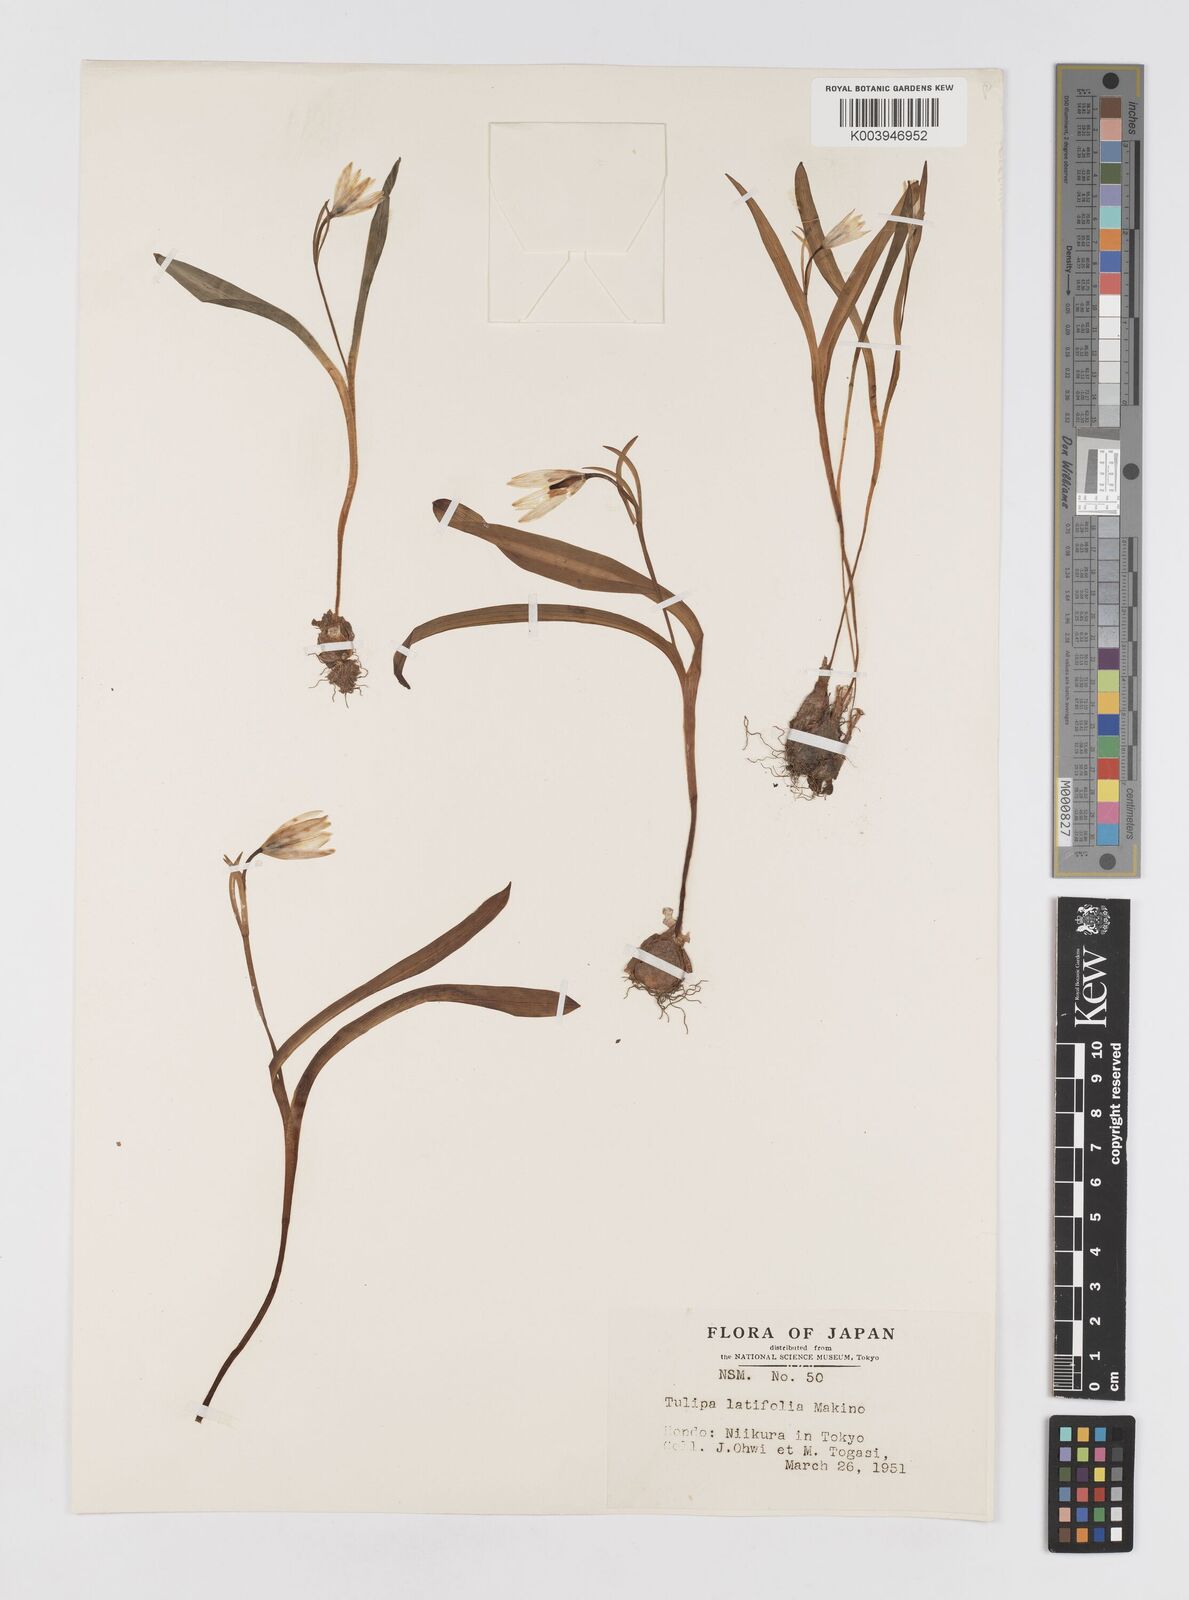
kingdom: Plantae
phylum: Tracheophyta
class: Liliopsida
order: Liliales
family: Liliaceae
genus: Amana
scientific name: Amana erythronioides
